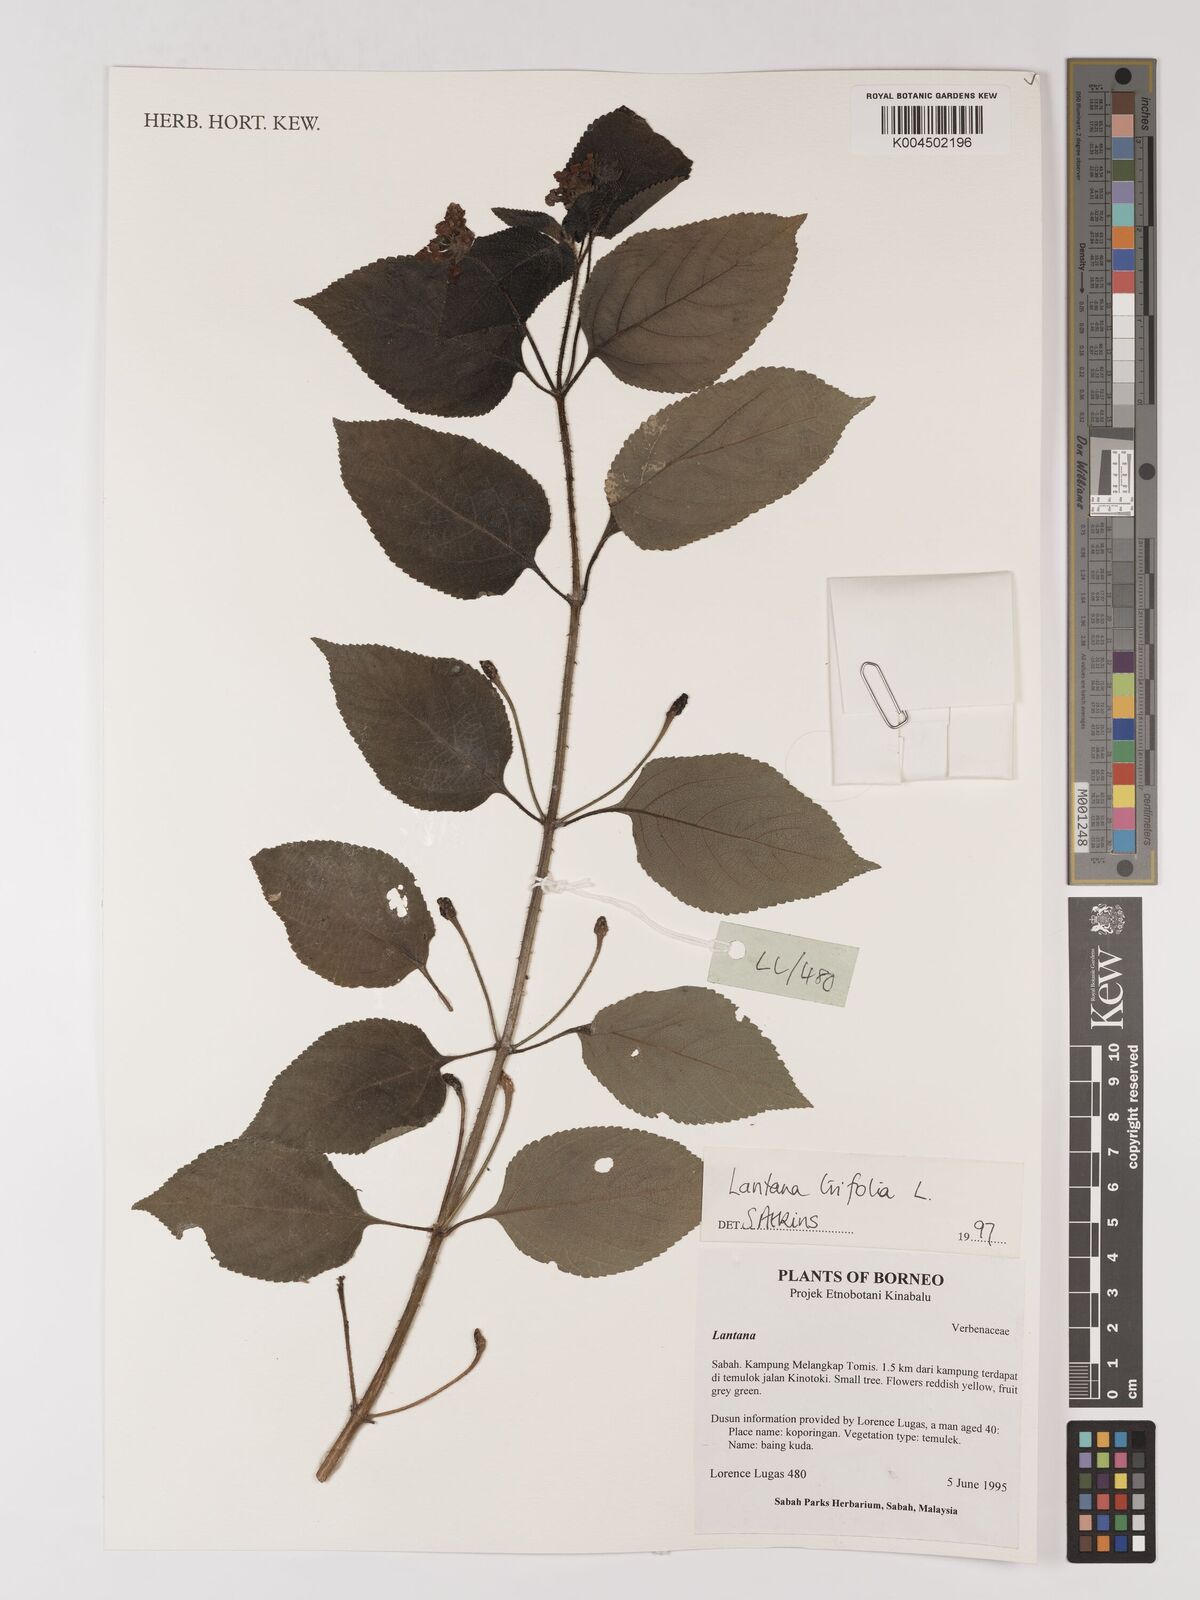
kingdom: Plantae
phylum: Tracheophyta
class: Magnoliopsida
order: Lamiales
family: Verbenaceae
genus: Lantana
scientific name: Lantana trifolia
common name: Sweet-sage
